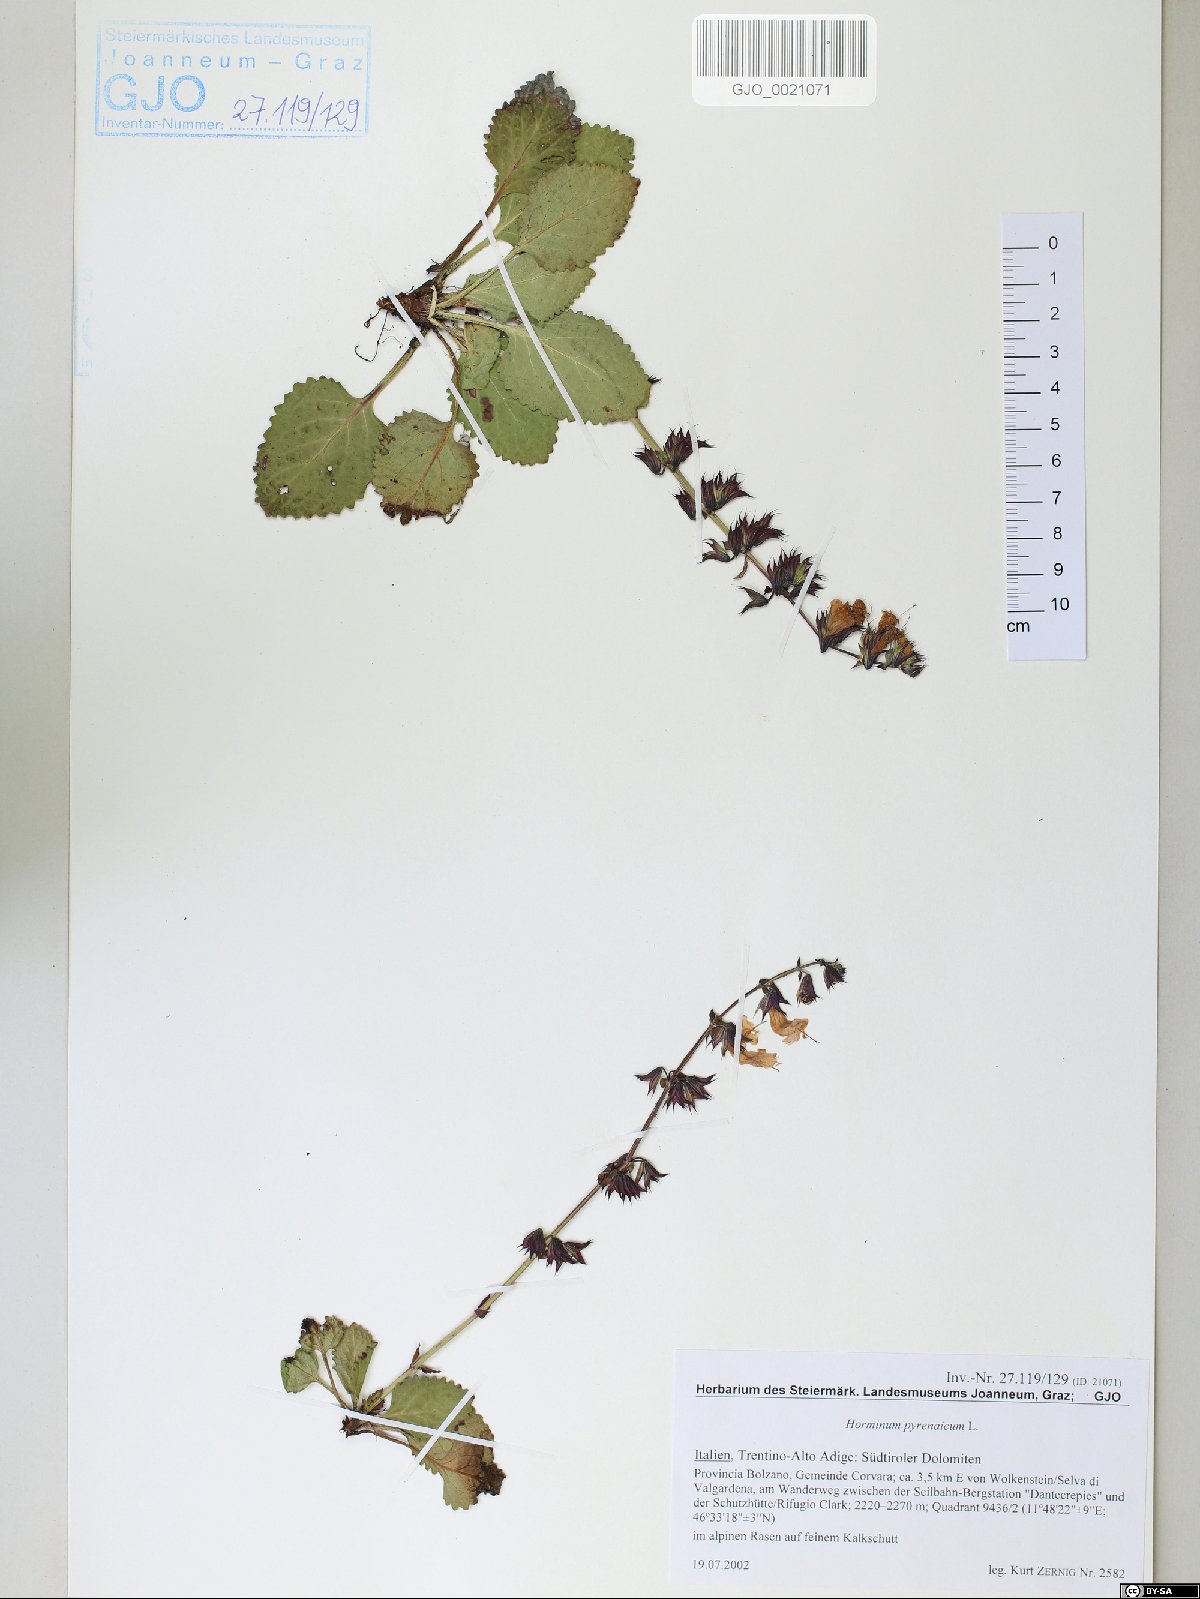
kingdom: Plantae
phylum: Tracheophyta
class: Magnoliopsida
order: Lamiales
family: Lamiaceae
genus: Horminum
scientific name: Horminum pyrenaicum
